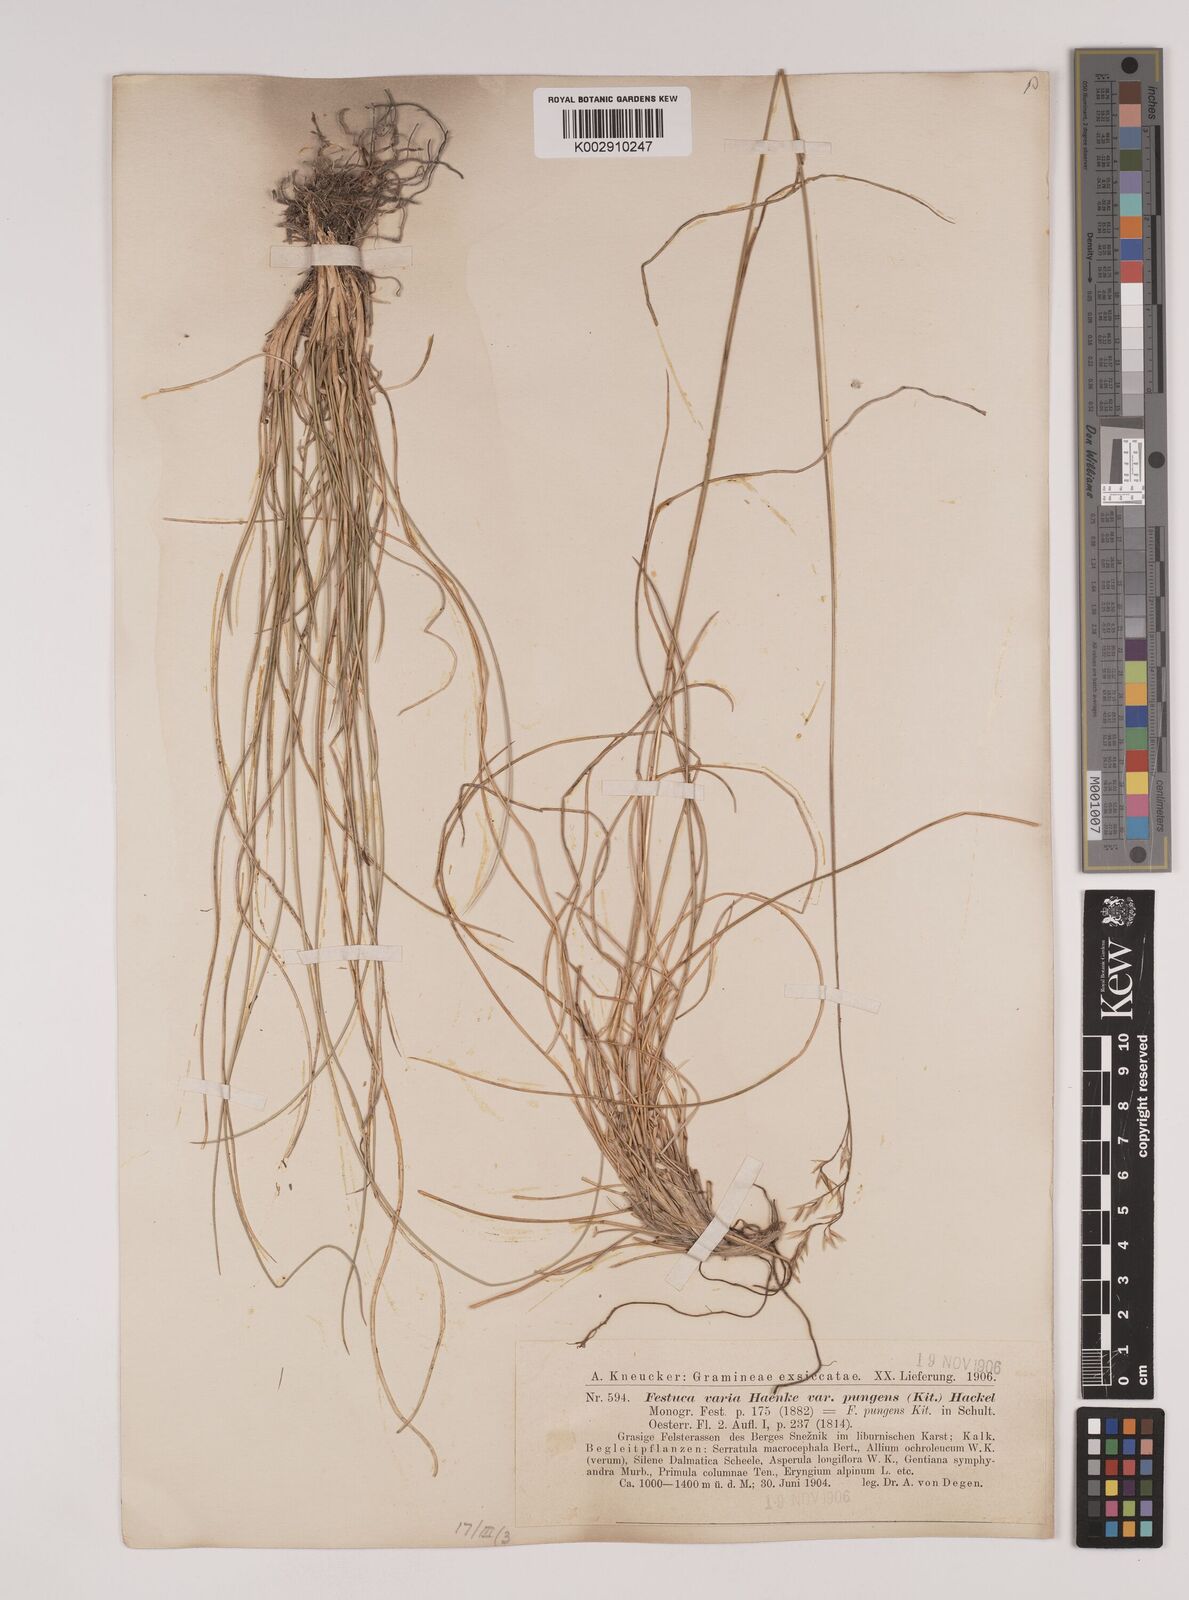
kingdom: Plantae
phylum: Tracheophyta
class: Liliopsida
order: Poales
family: Poaceae
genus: Festuca
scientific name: Festuca bosniaca
